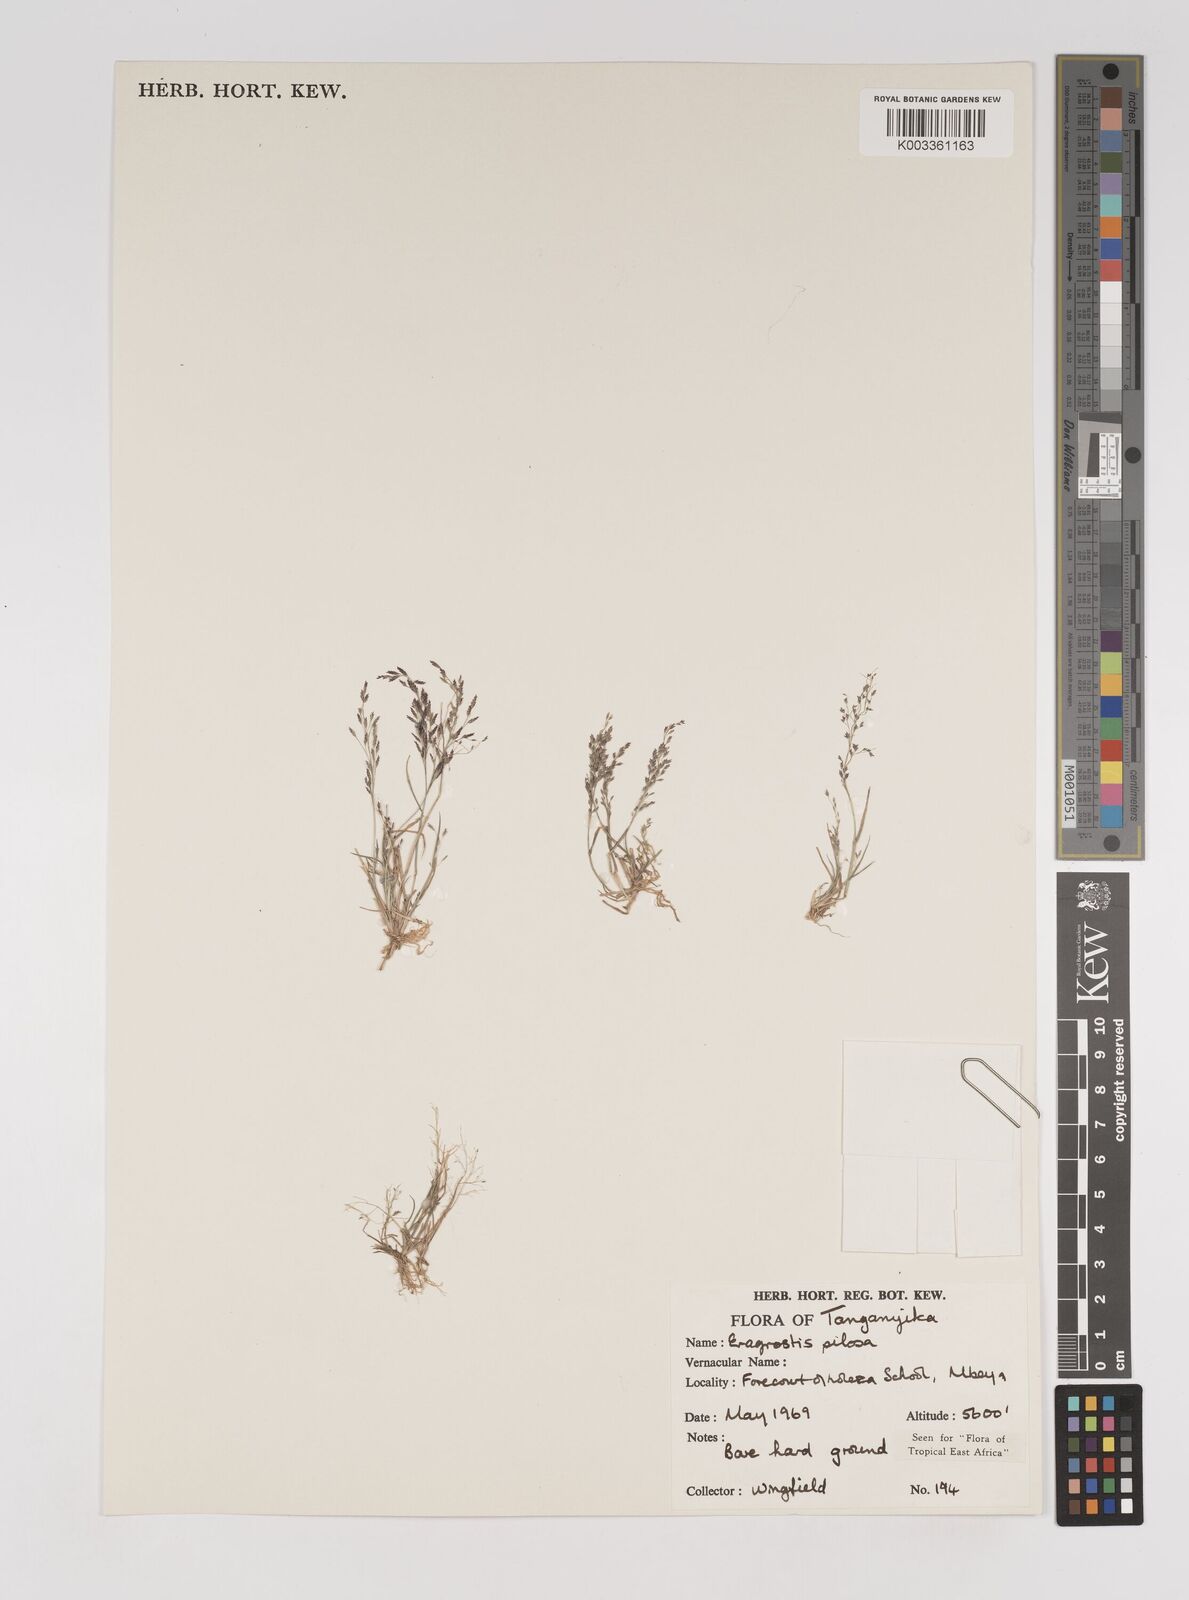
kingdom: Plantae
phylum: Tracheophyta
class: Liliopsida
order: Poales
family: Poaceae
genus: Eragrostis
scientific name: Eragrostis pilosa
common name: Indian lovegrass
